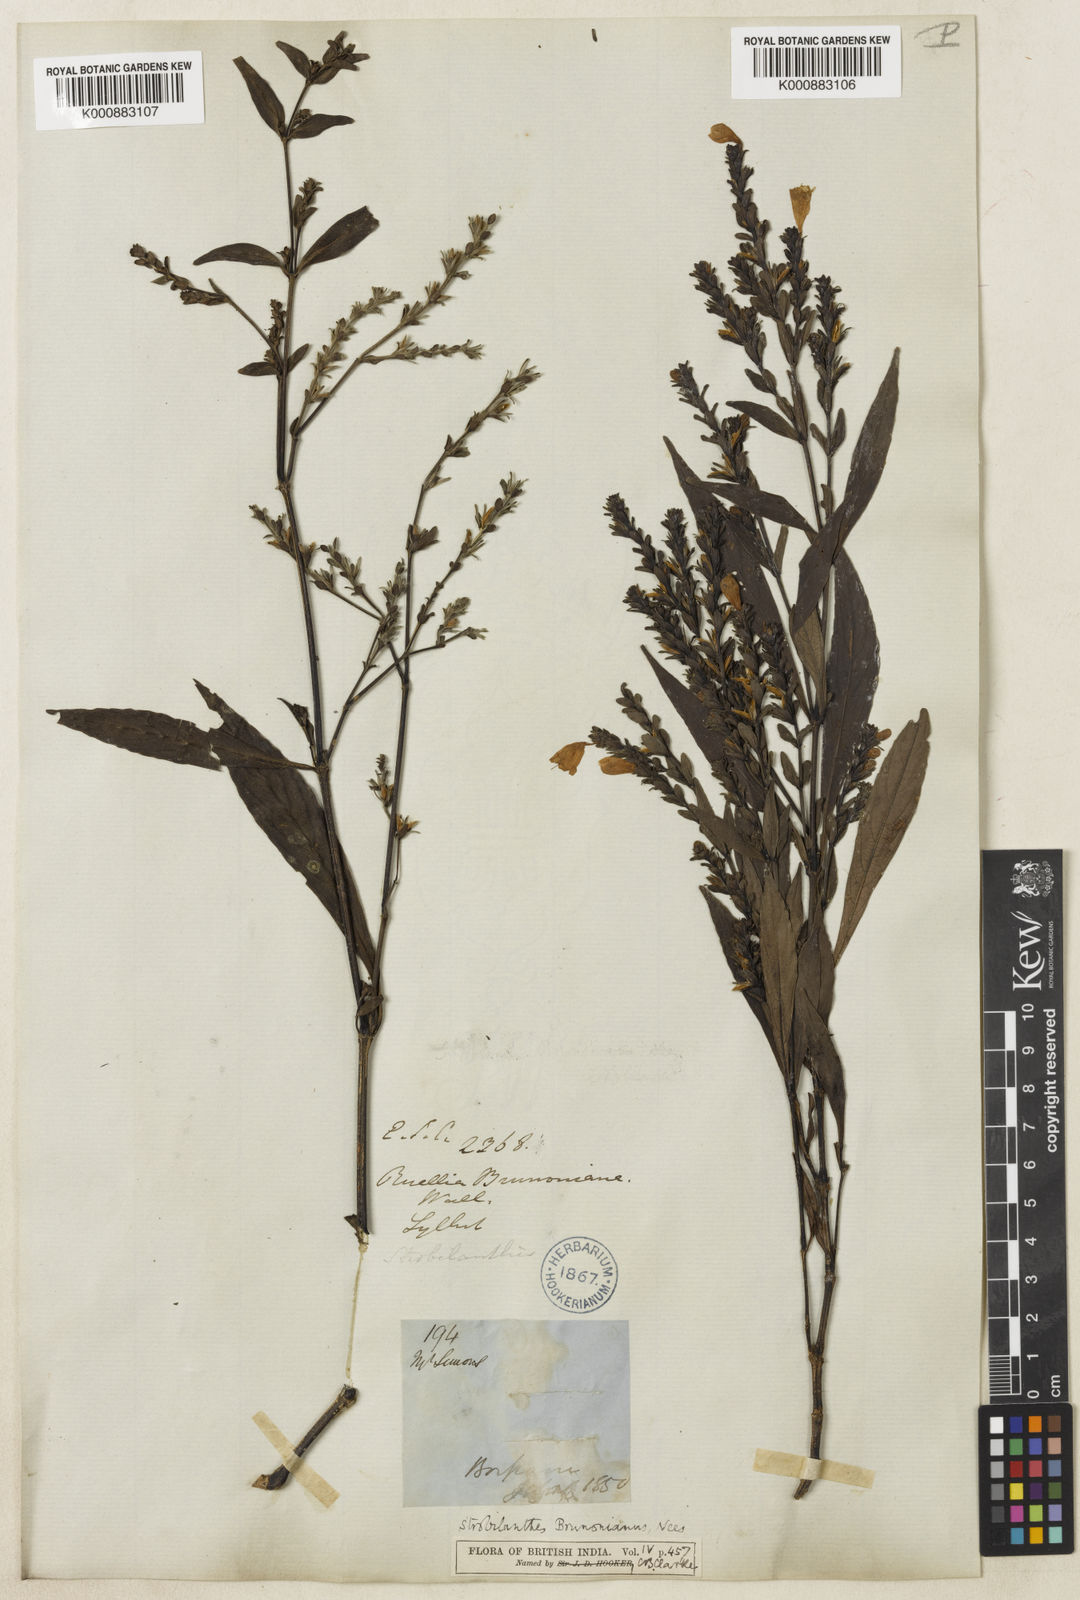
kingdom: Plantae
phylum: Tracheophyta
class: Magnoliopsida
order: Lamiales
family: Acanthaceae
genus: Strobilanthes
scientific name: Strobilanthes brunoniana
